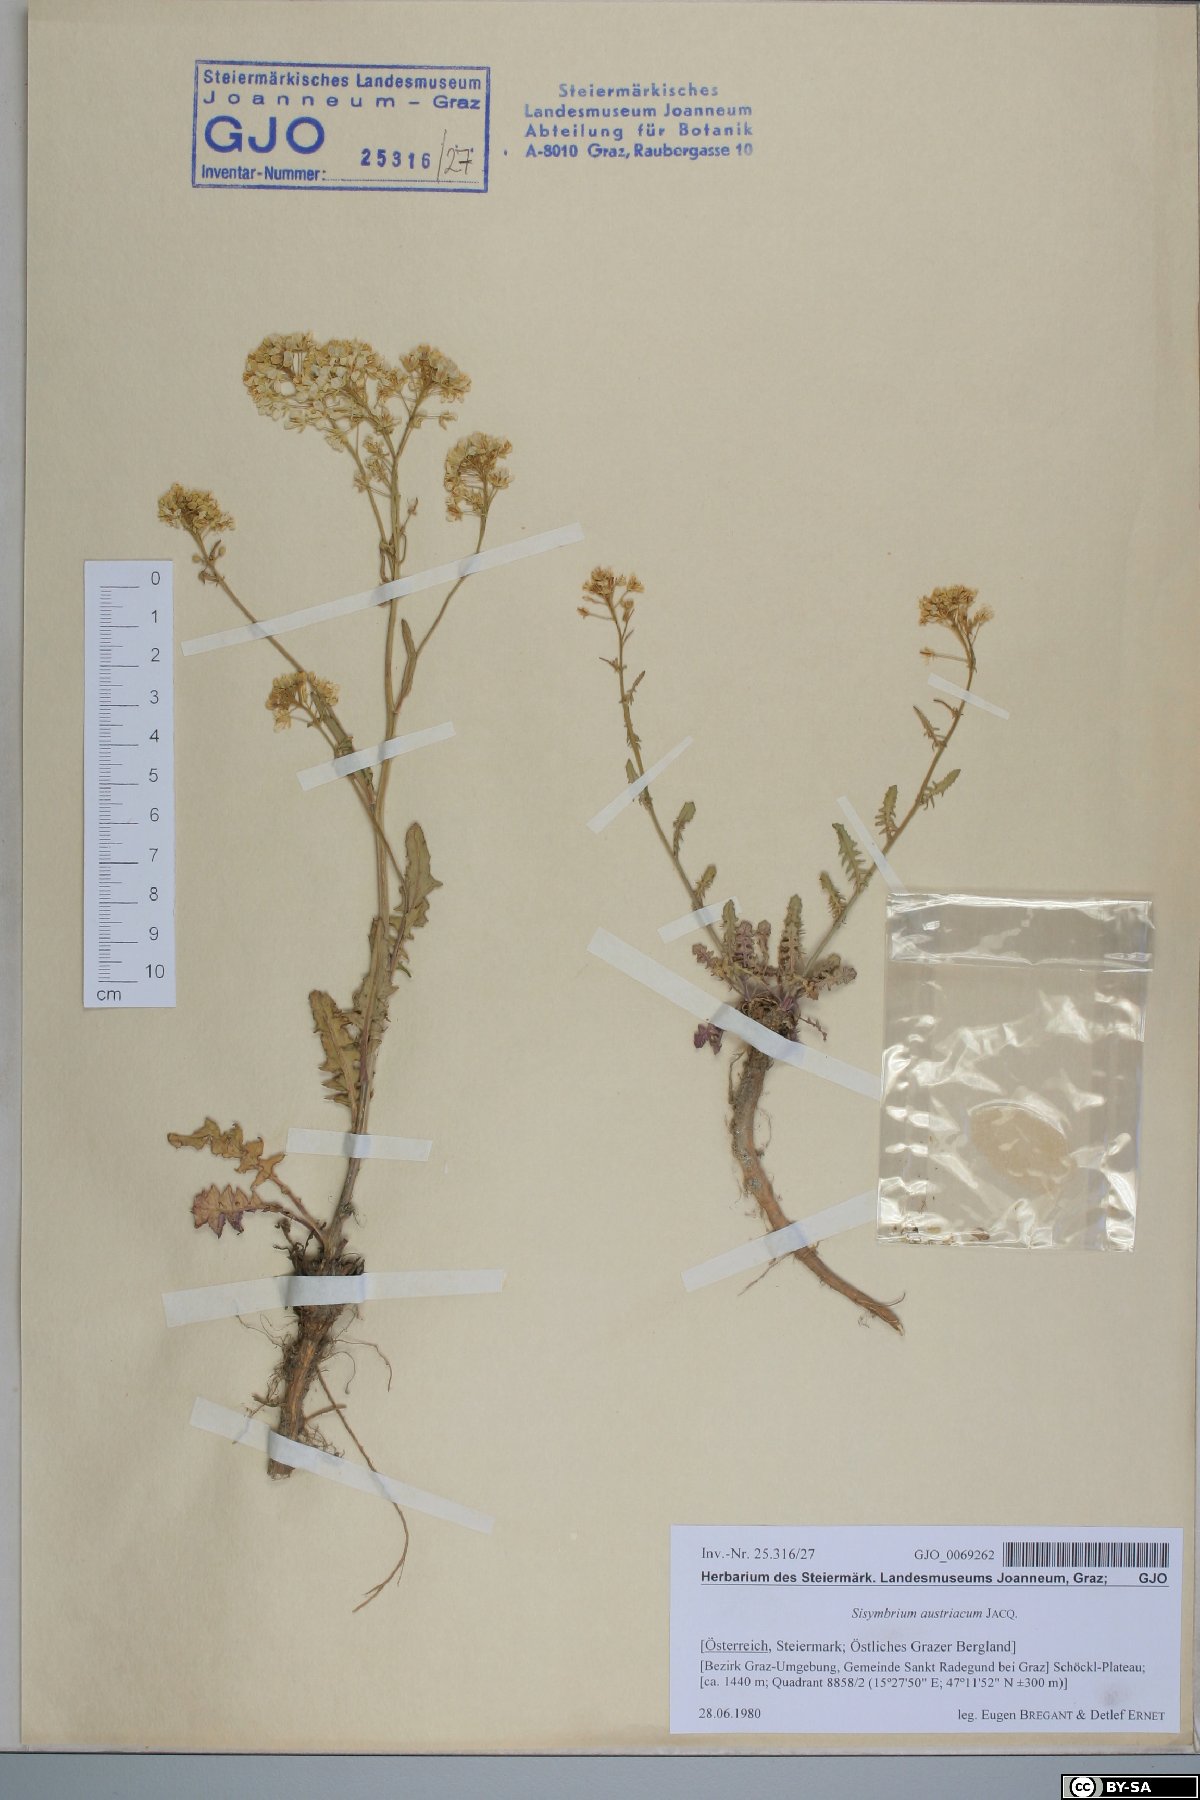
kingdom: Plantae
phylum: Tracheophyta
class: Magnoliopsida
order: Brassicales
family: Brassicaceae
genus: Sisymbrium
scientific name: Sisymbrium austriacum
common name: Jeweled rocket
